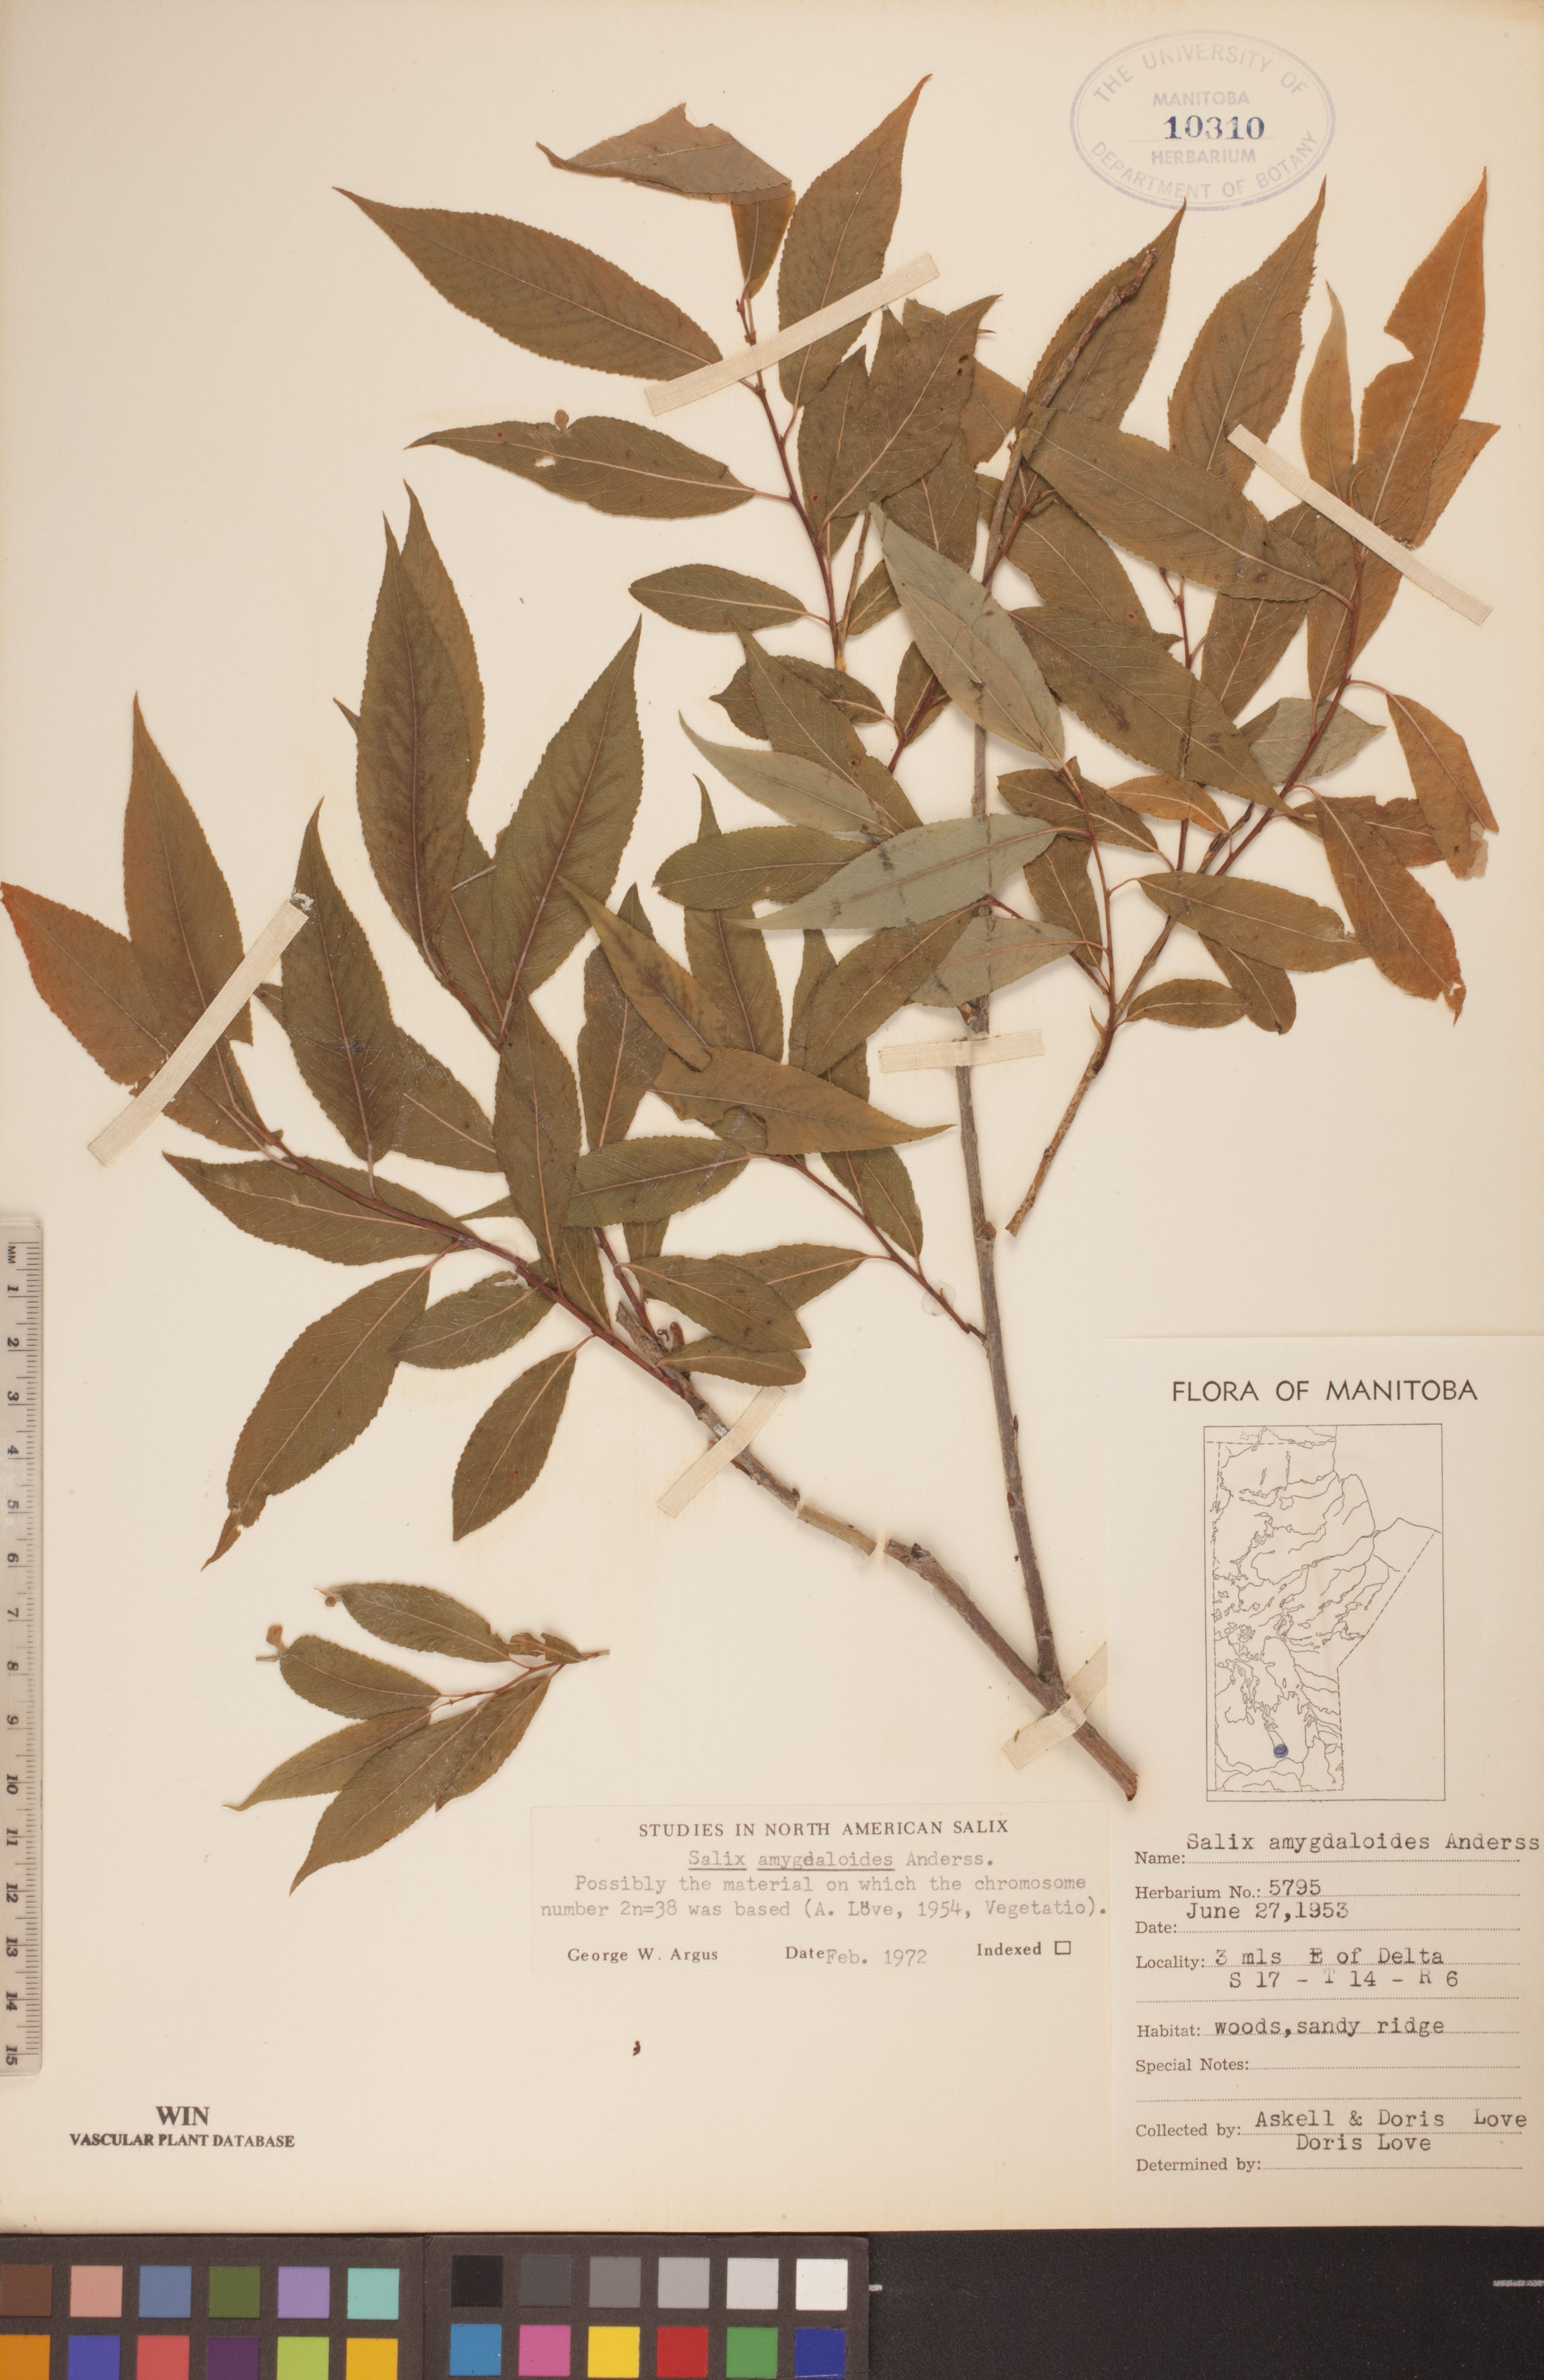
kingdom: Plantae
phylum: Tracheophyta
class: Magnoliopsida
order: Malpighiales
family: Salicaceae
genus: Salix
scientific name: Salix amygdaloides
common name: Peach leaf willow
